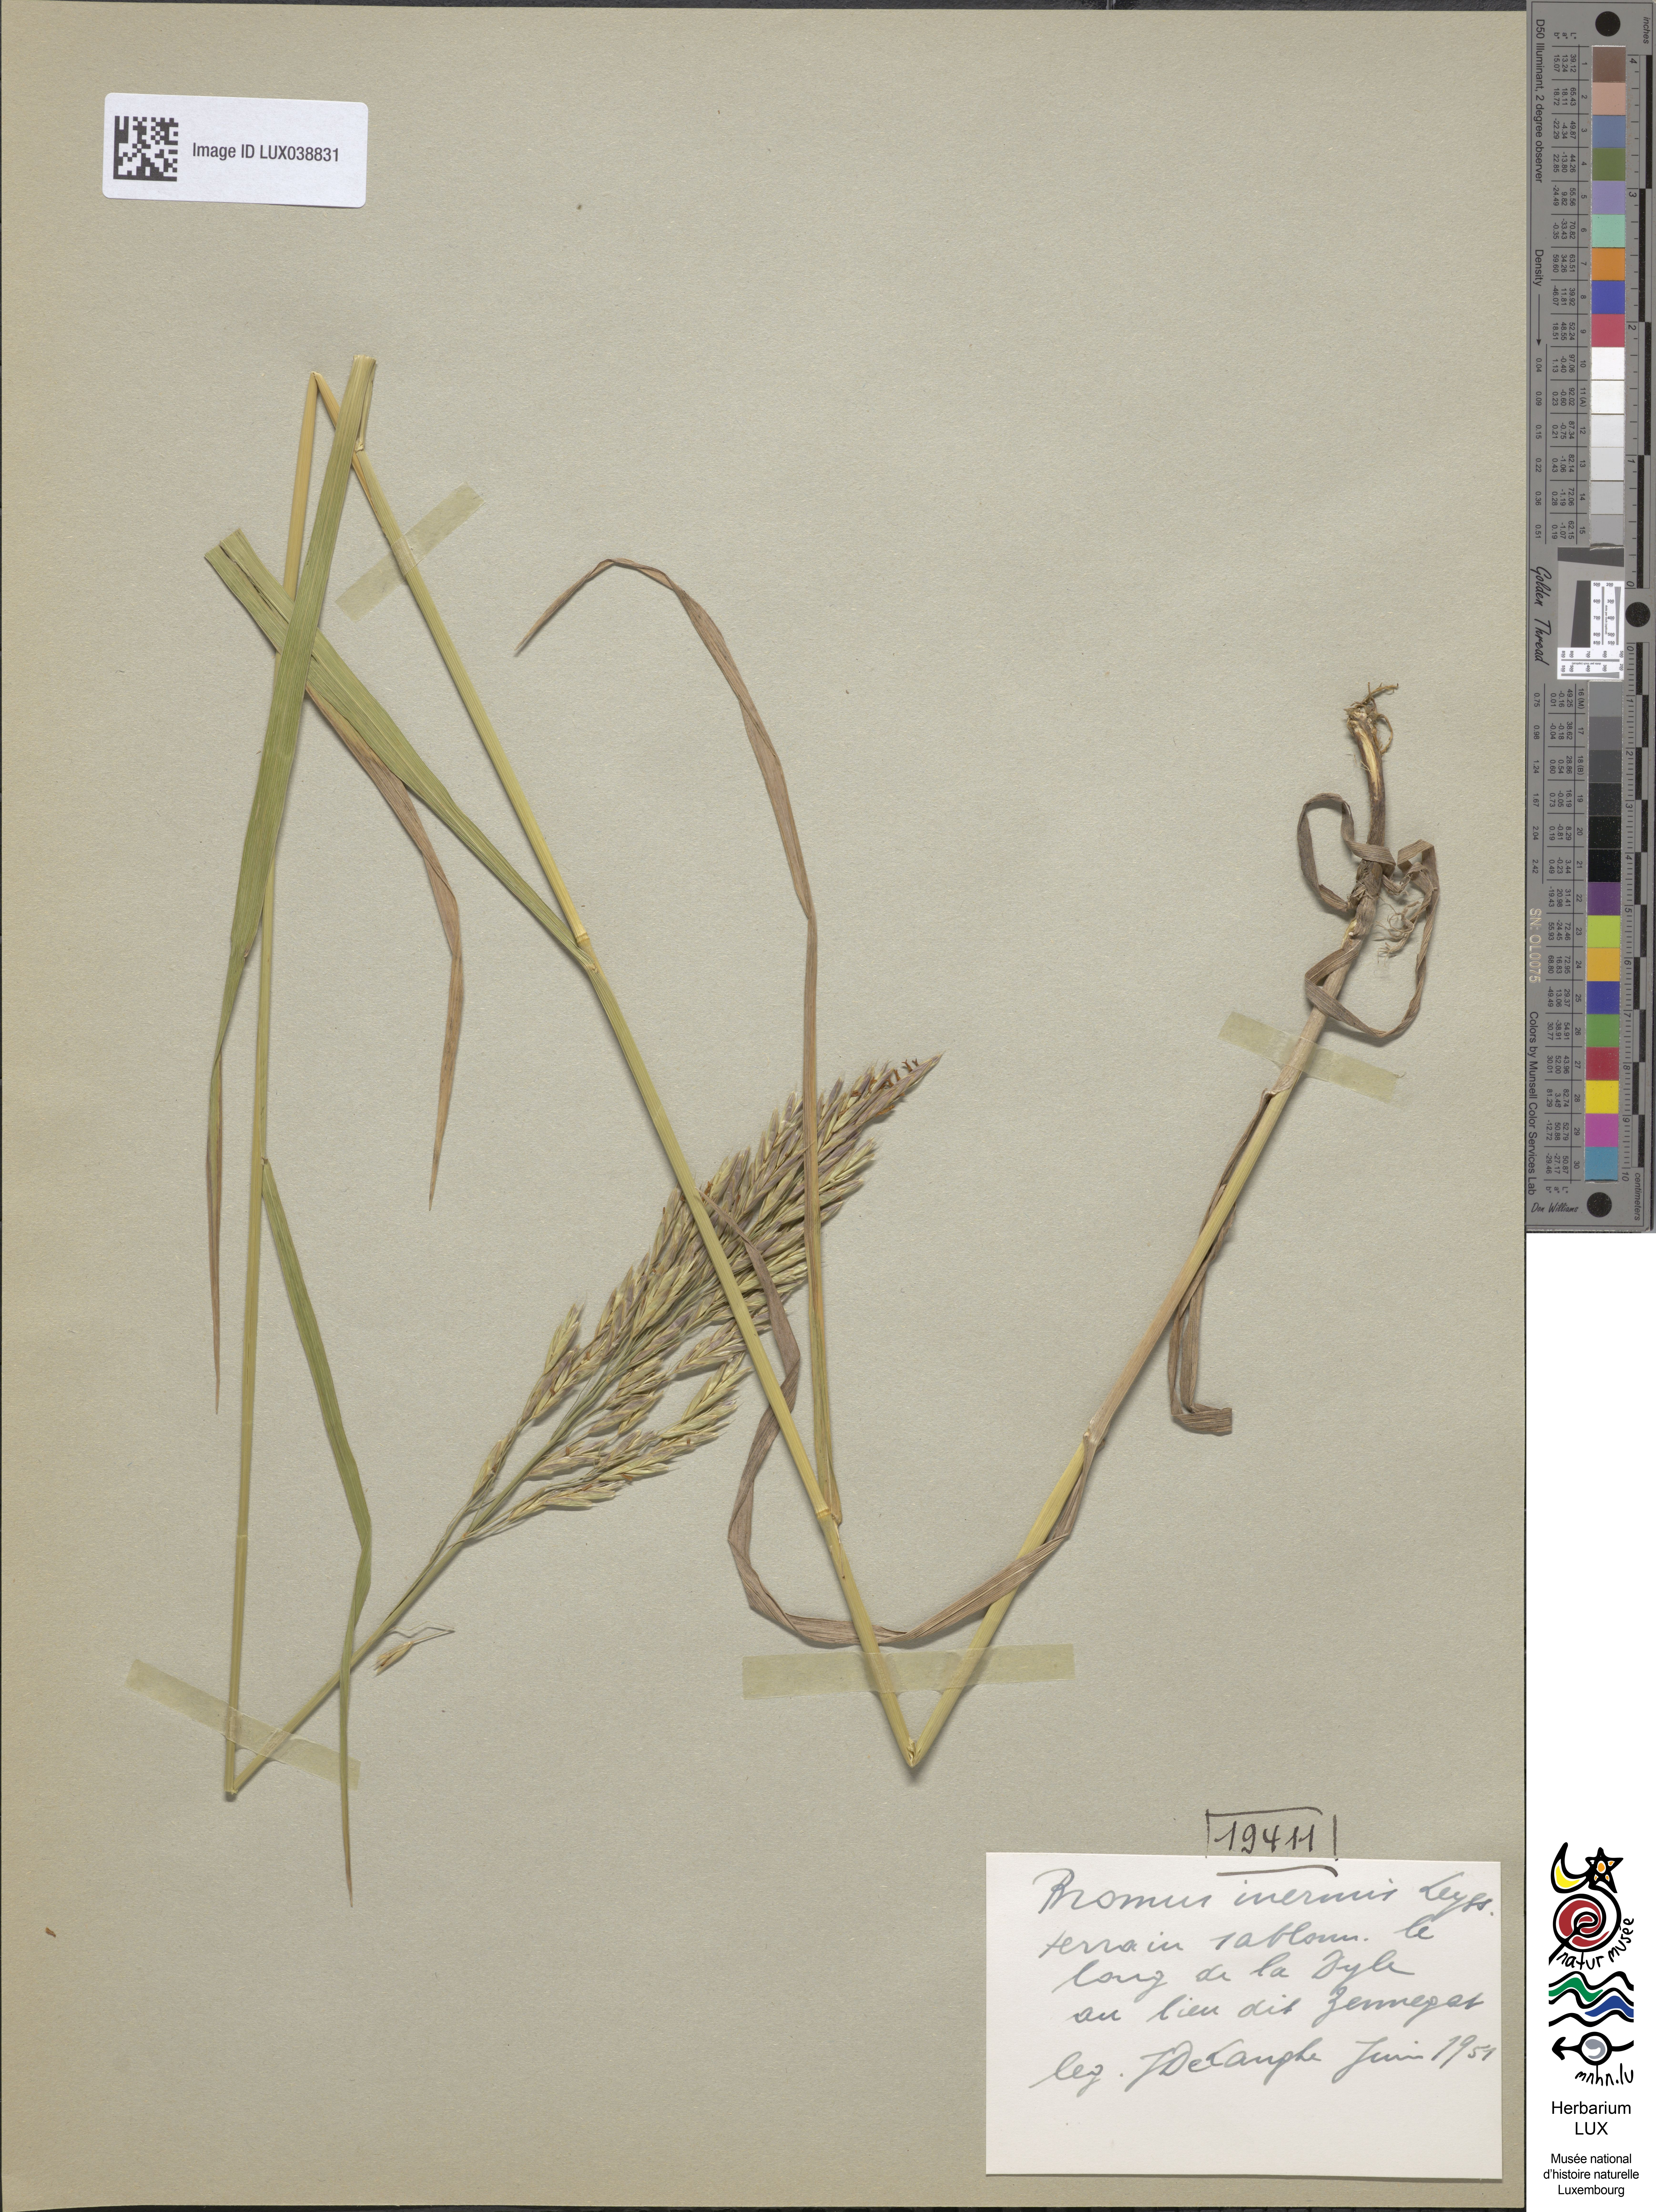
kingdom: Plantae
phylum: Tracheophyta
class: Liliopsida
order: Poales
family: Poaceae
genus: Bromus
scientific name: Bromus inermis
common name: Smooth brome
